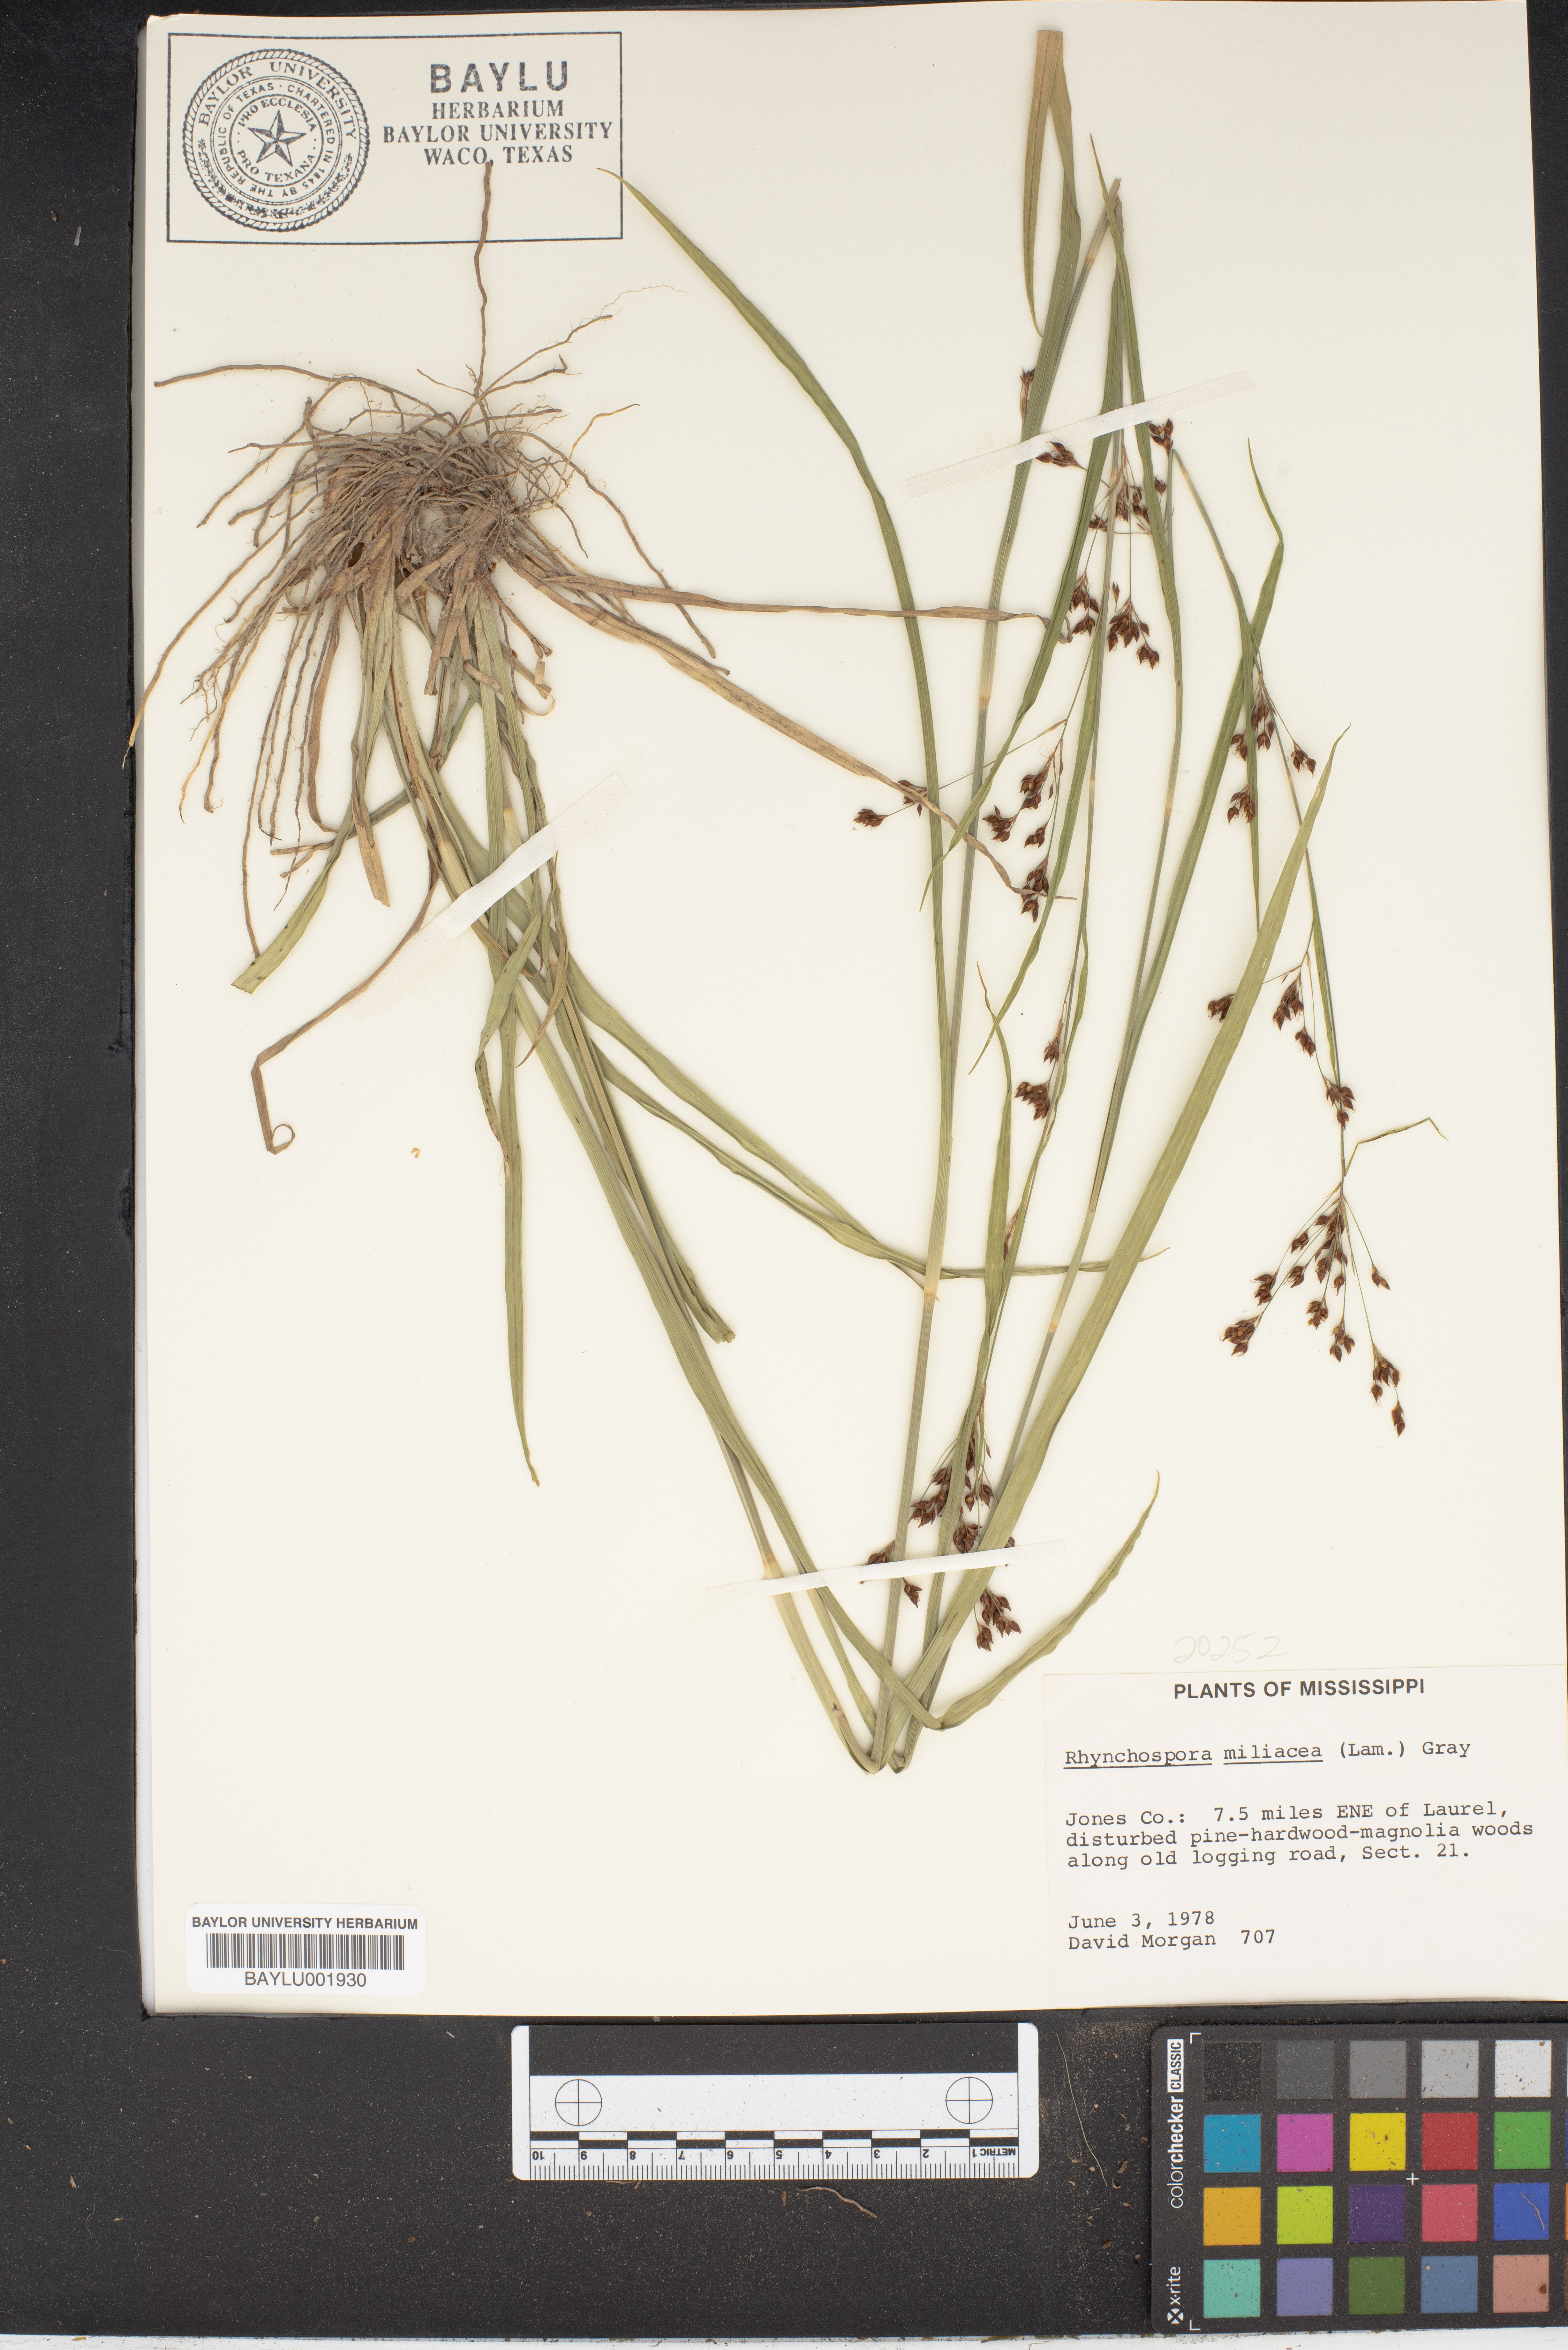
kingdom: Plantae
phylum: Tracheophyta
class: Liliopsida
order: Poales
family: Cyperaceae
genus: Rhynchospora
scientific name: Rhynchospora miliacea
